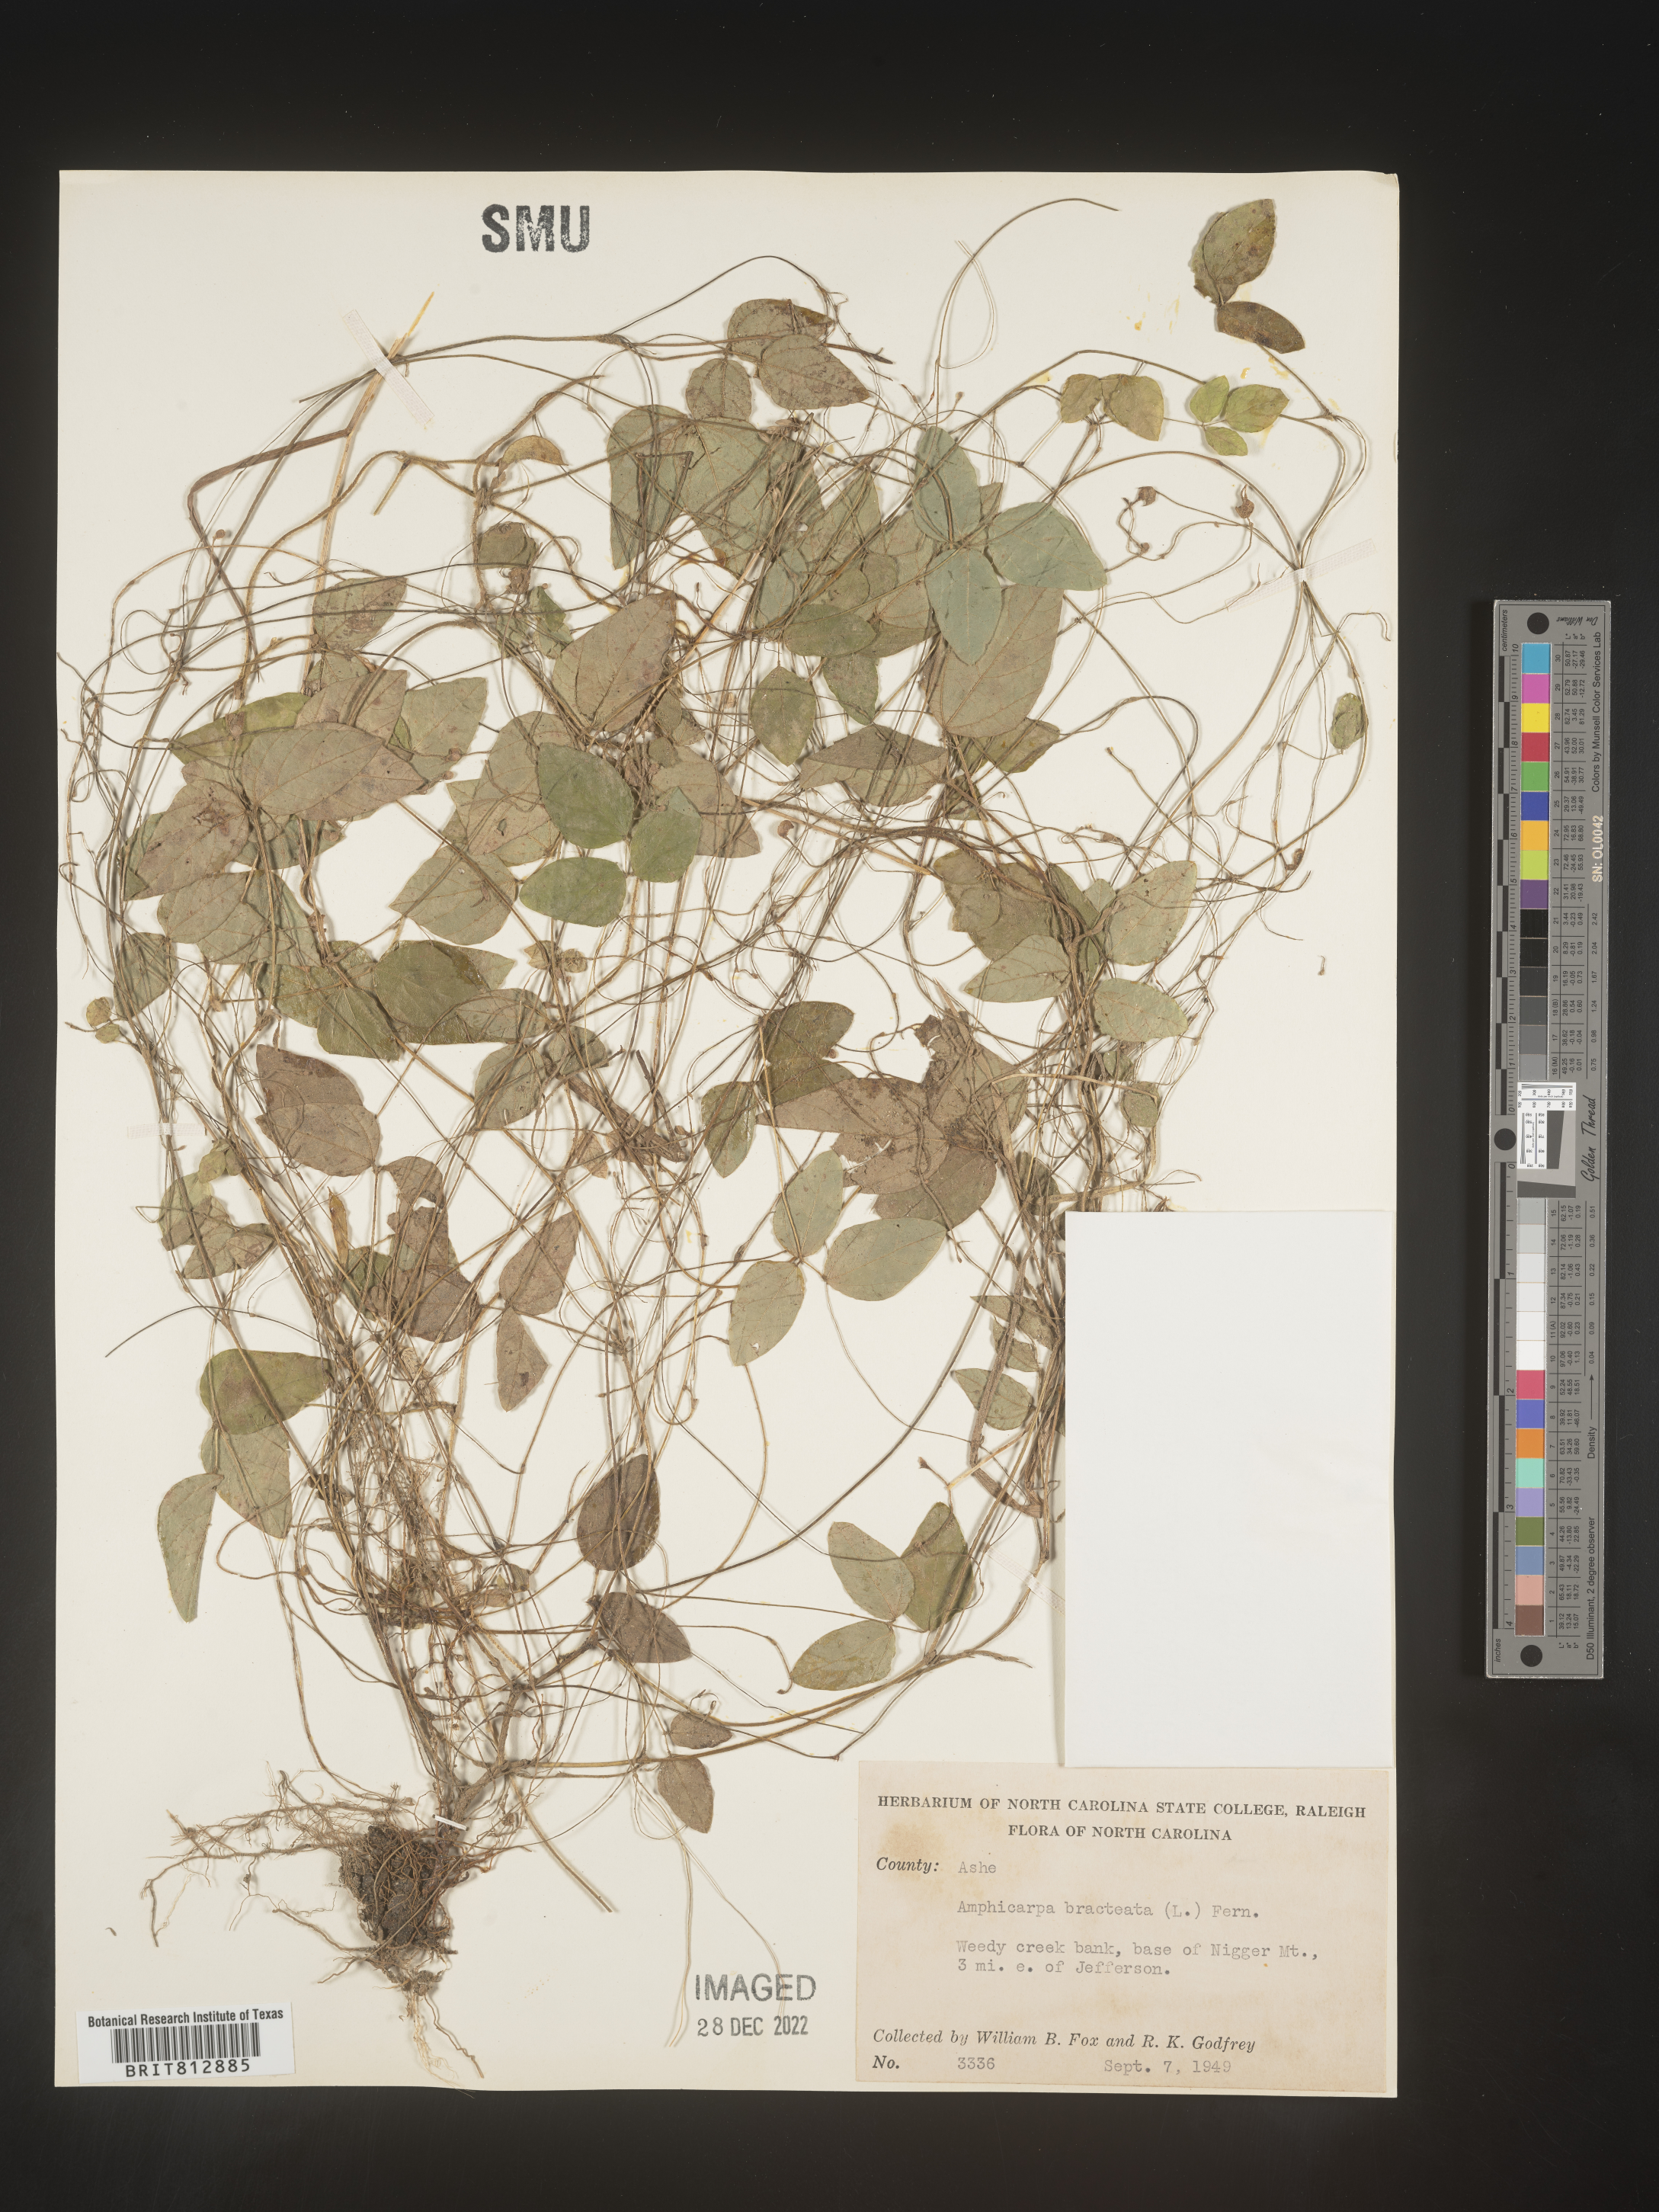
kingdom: Plantae
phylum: Tracheophyta
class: Magnoliopsida
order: Fabales
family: Fabaceae
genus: Amphicarpaea
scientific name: Amphicarpaea bracteata
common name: American hog peanut
